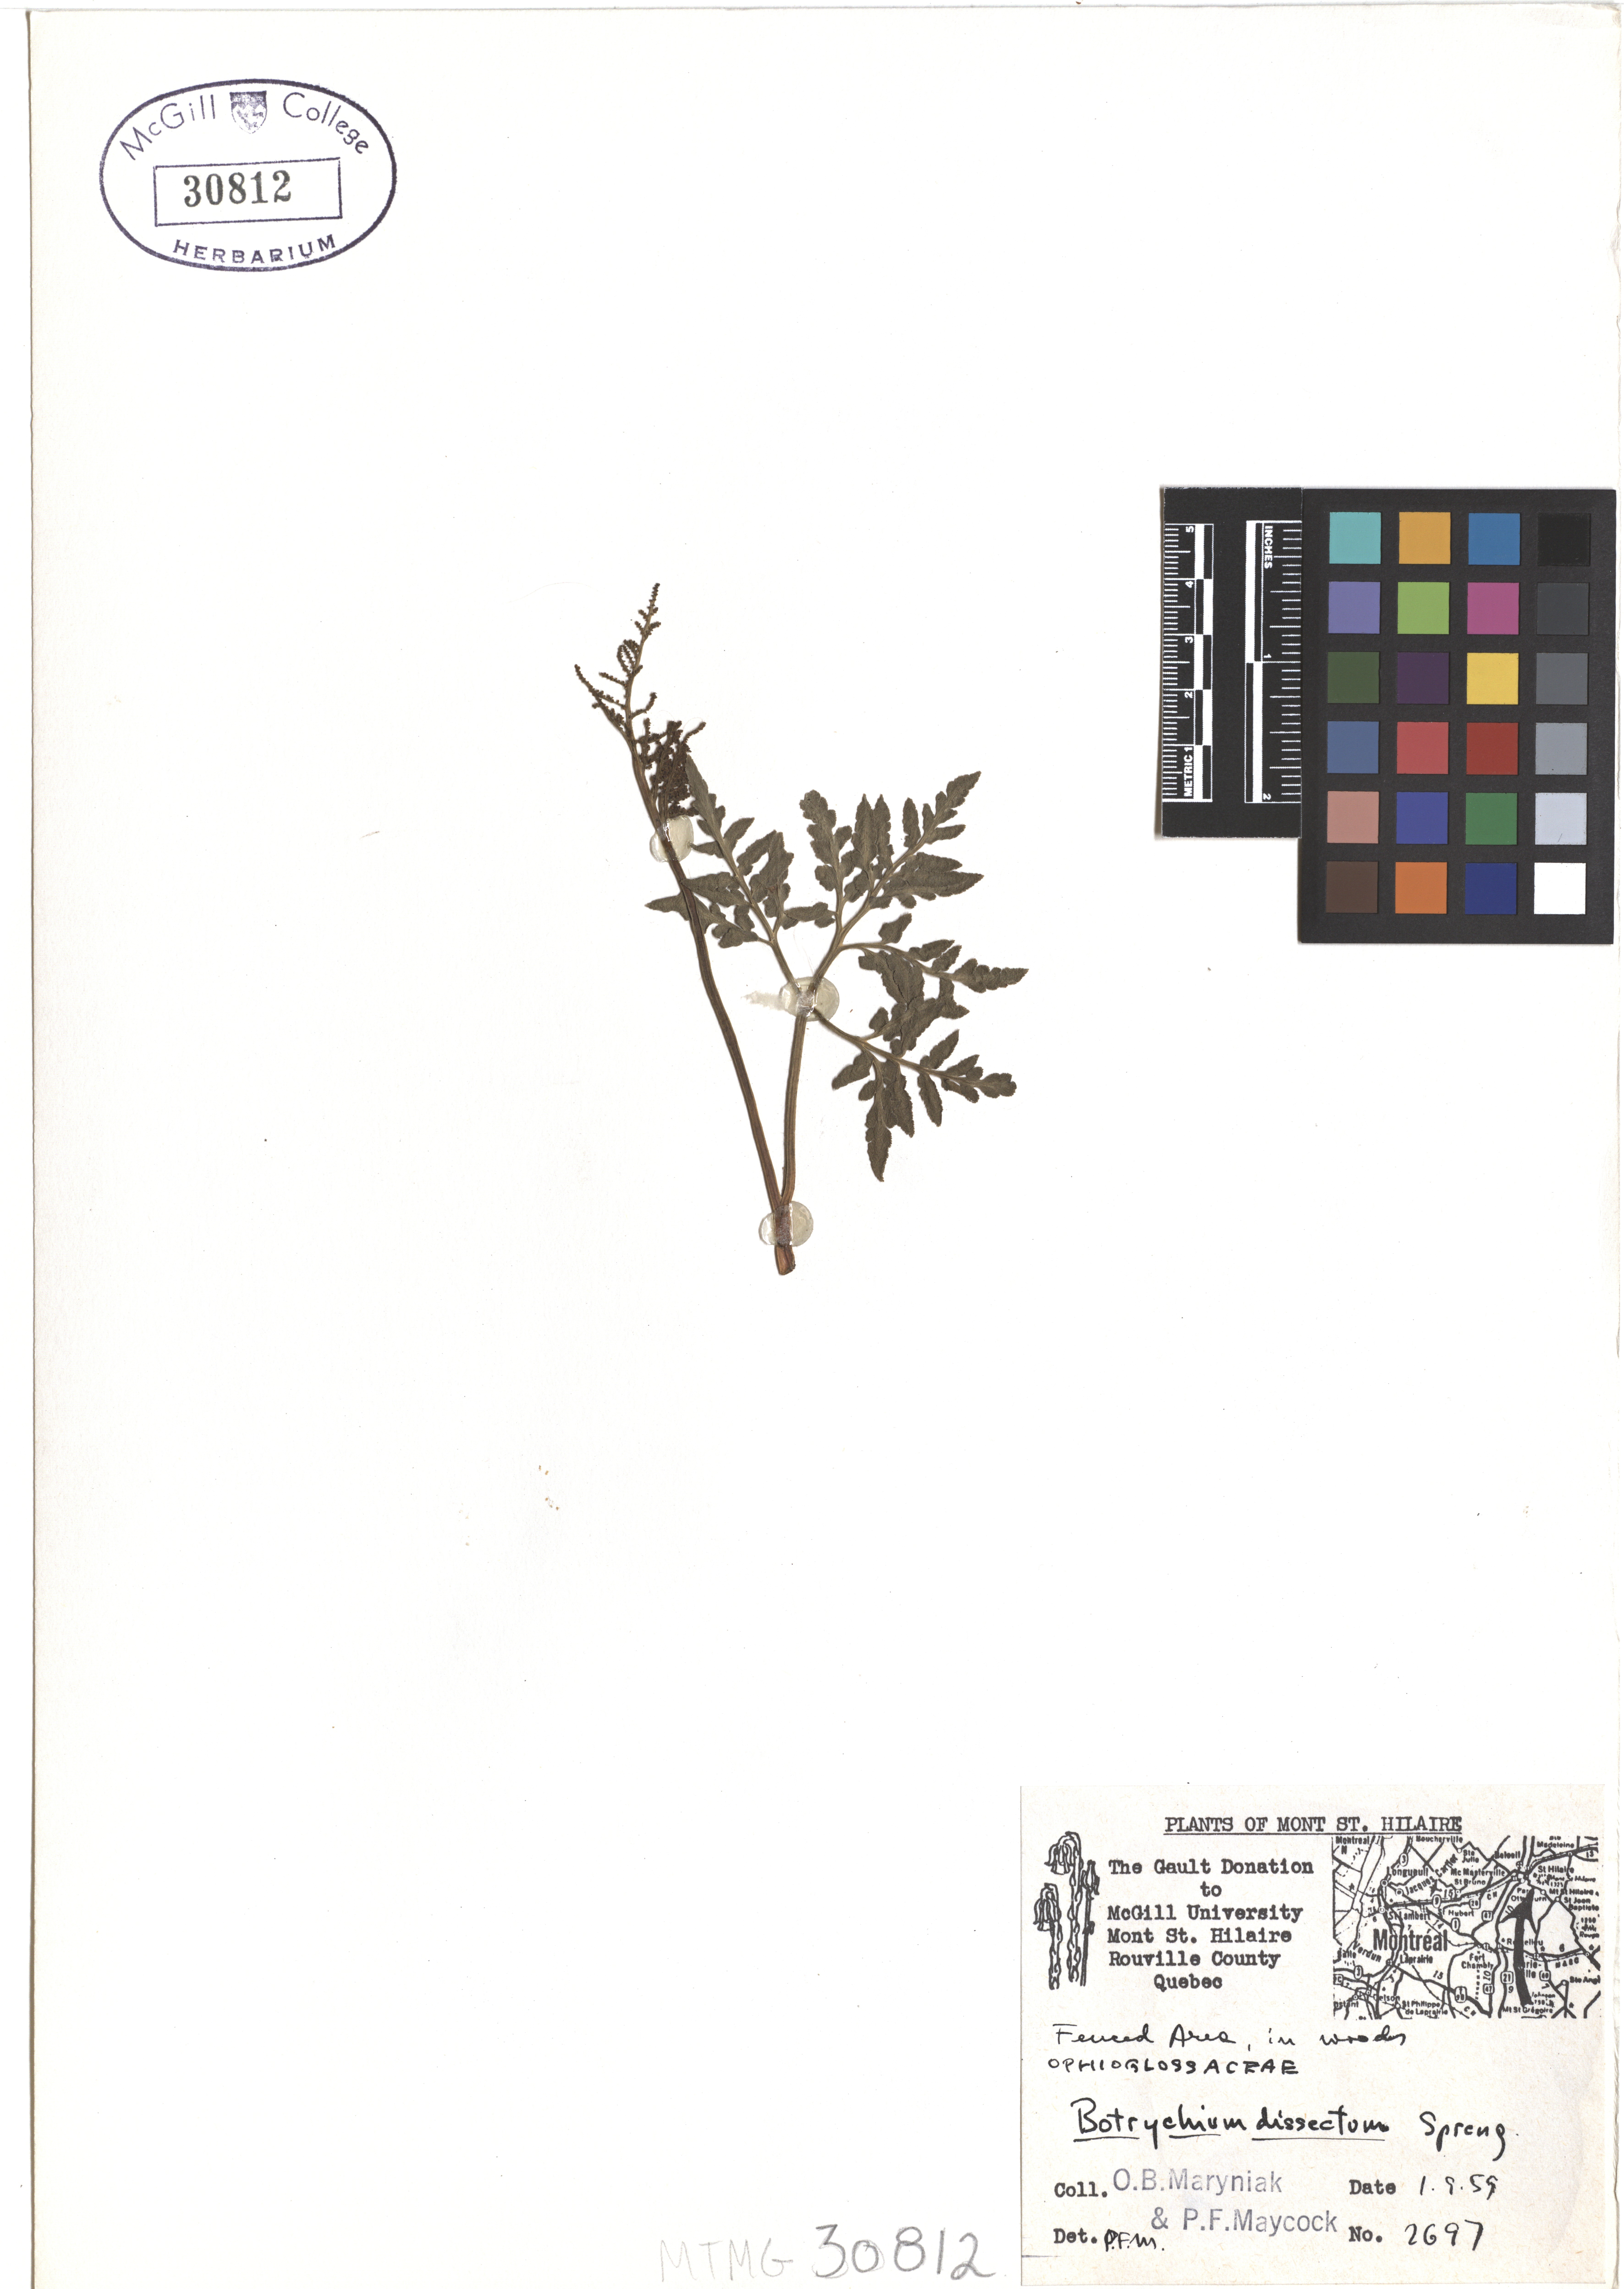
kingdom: Plantae
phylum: Tracheophyta
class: Polypodiopsida
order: Ophioglossales
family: Ophioglossaceae
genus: Sceptridium
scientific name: Sceptridium dissectum
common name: Cut-leaved grapefern
